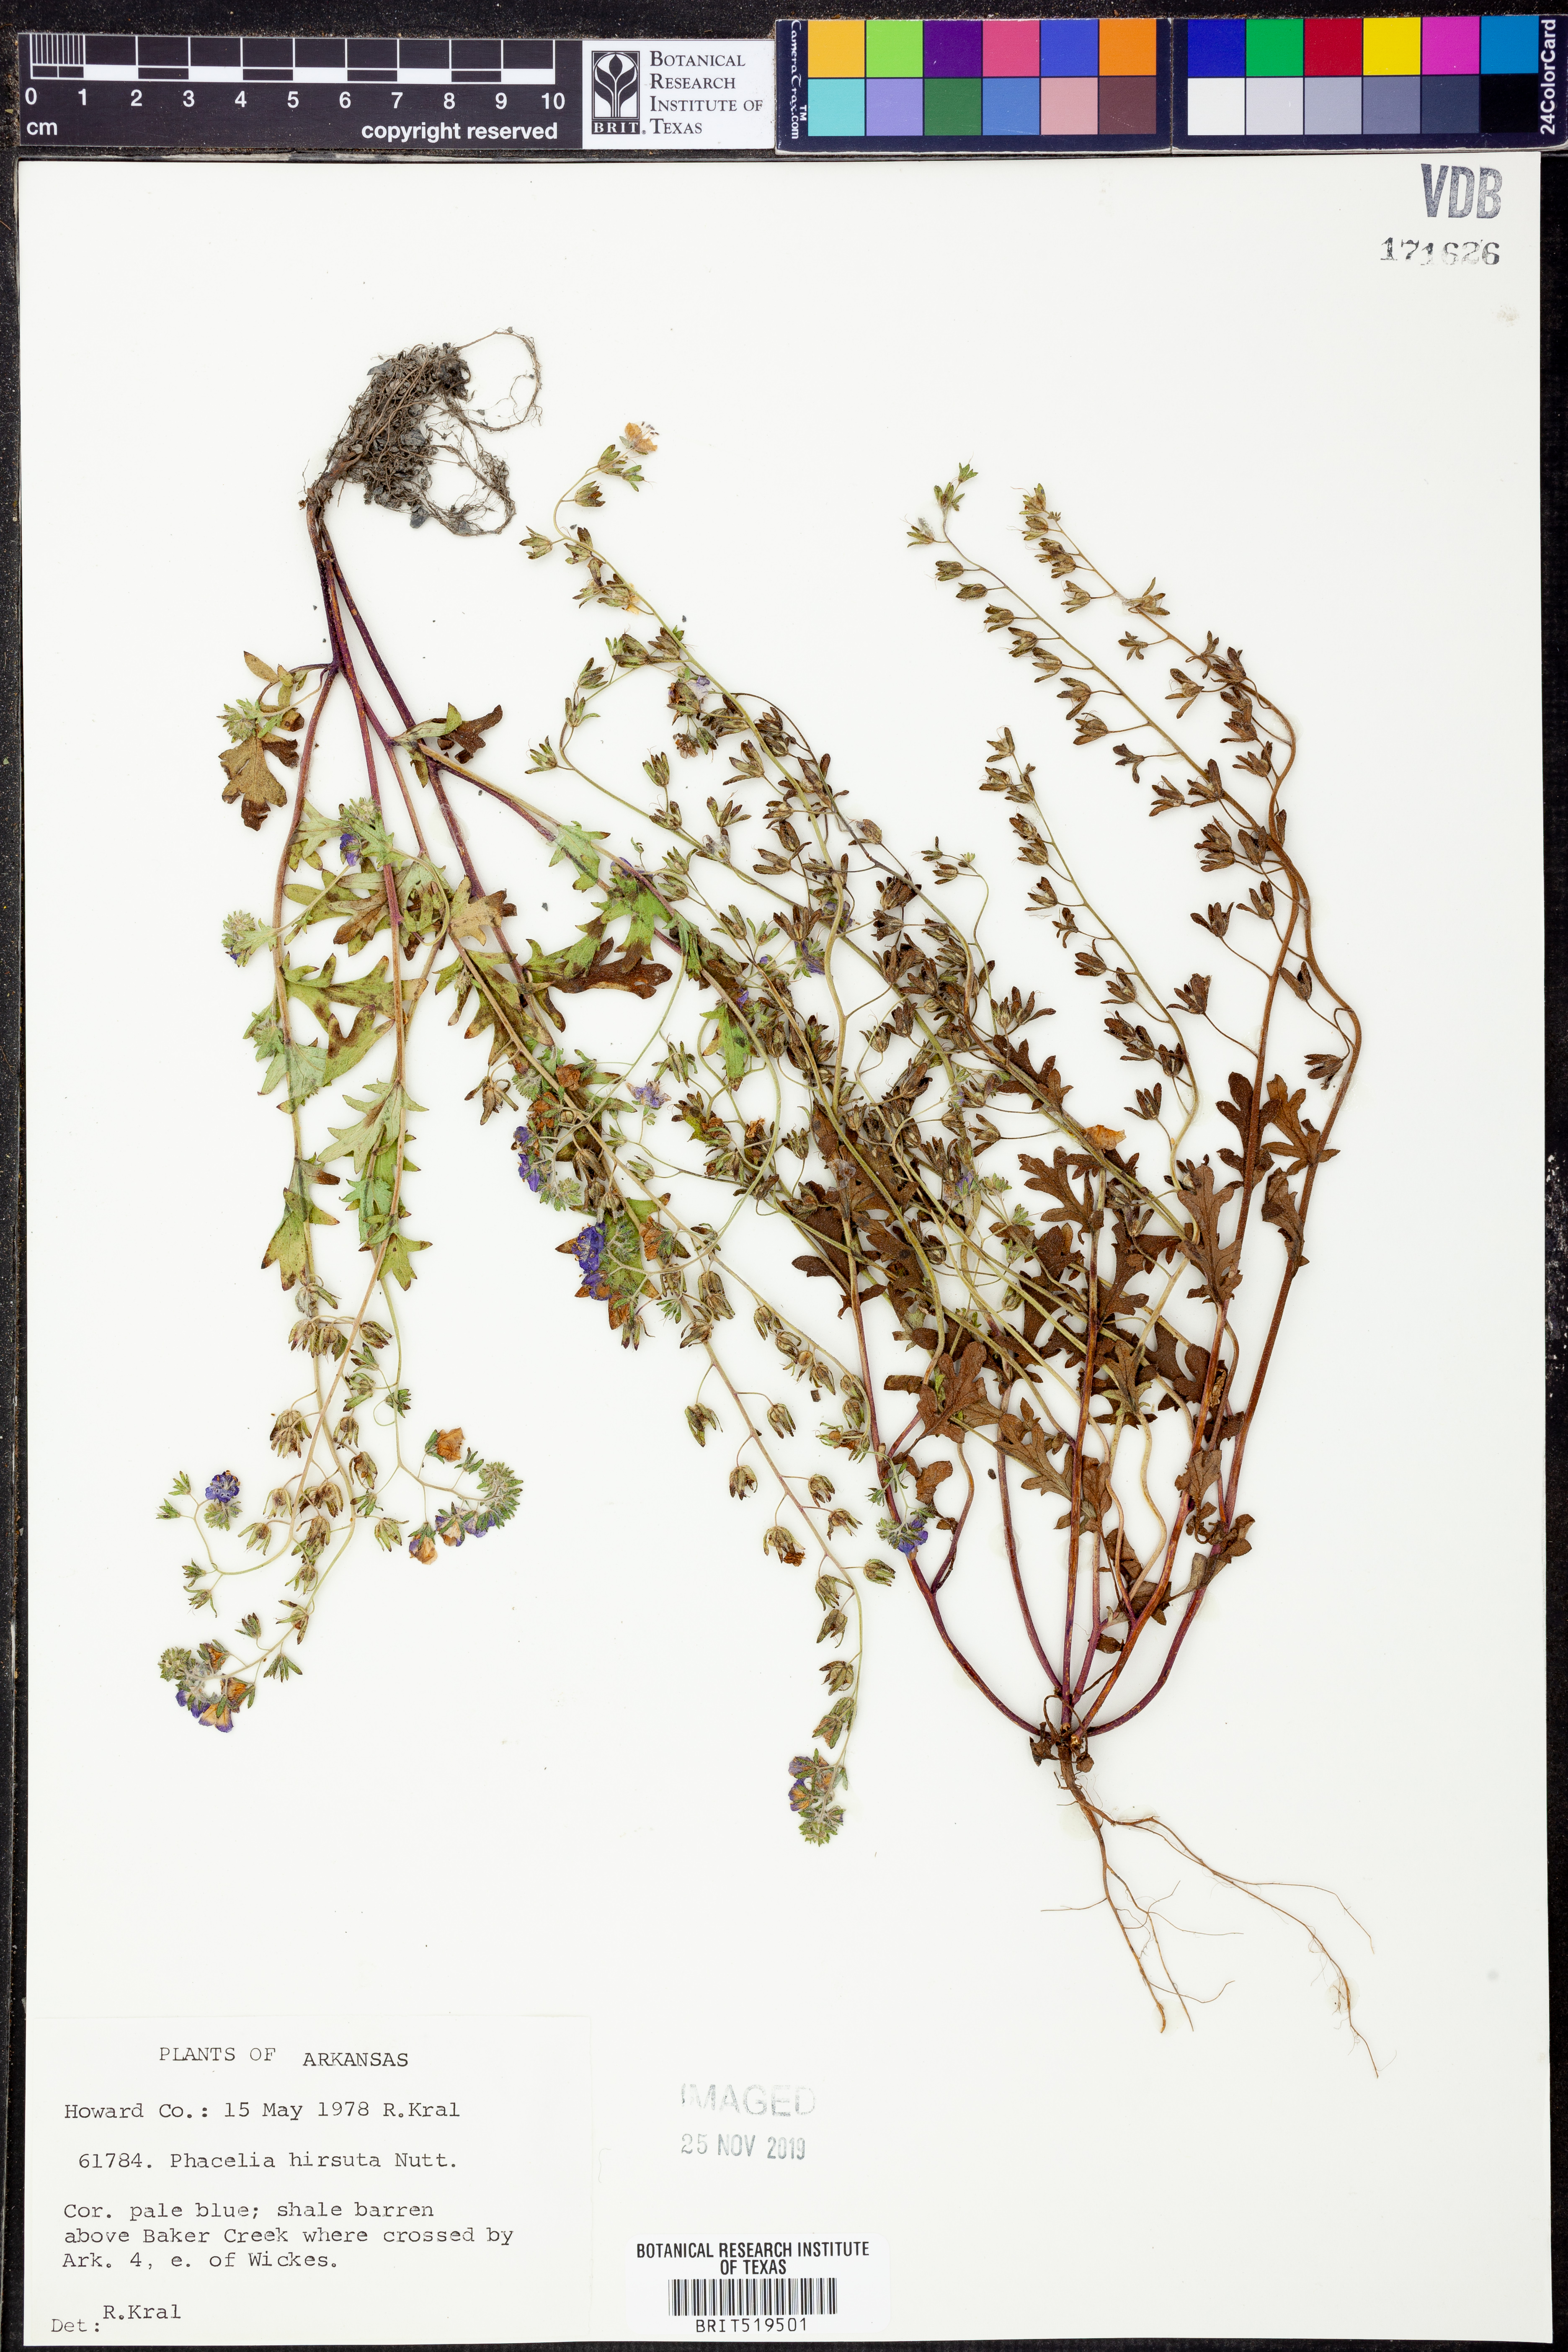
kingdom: Plantae
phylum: Tracheophyta
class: Magnoliopsida
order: Boraginales
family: Hydrophyllaceae
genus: Phacelia
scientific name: Phacelia hirsuta
